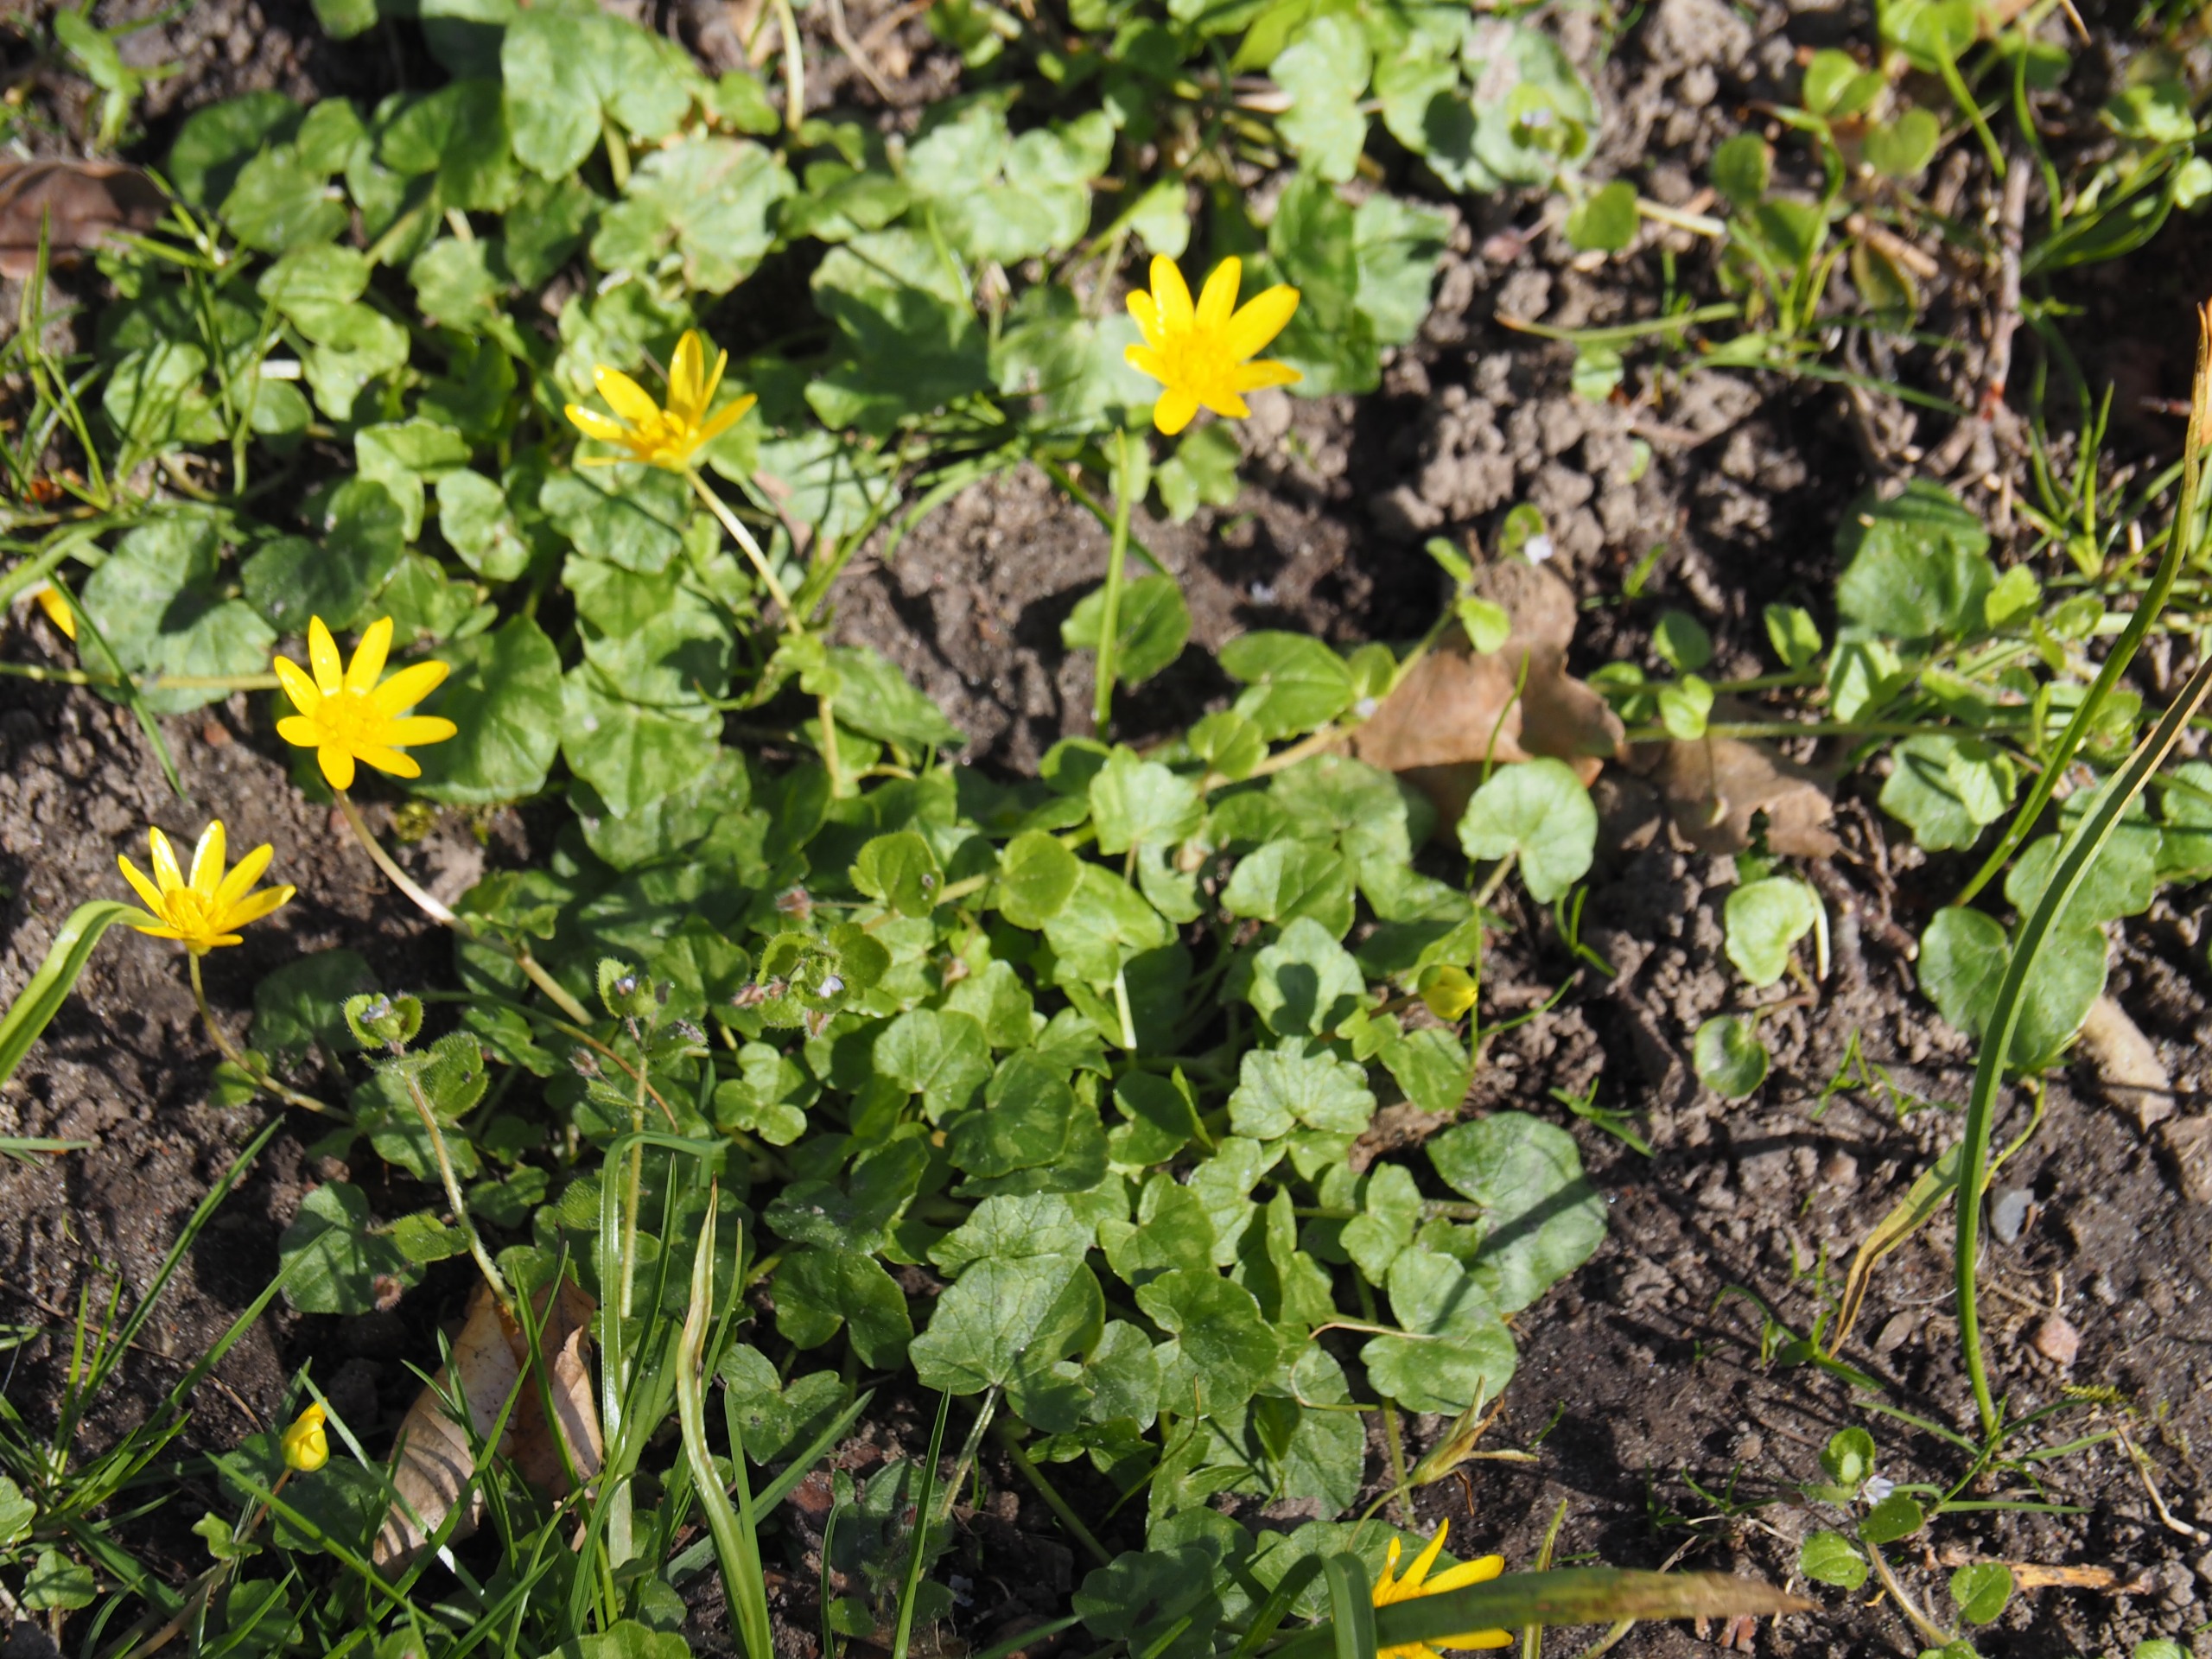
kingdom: Plantae
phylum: Tracheophyta
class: Magnoliopsida
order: Ranunculales
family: Ranunculaceae
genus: Ficaria
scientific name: Ficaria verna
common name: Vorterod
